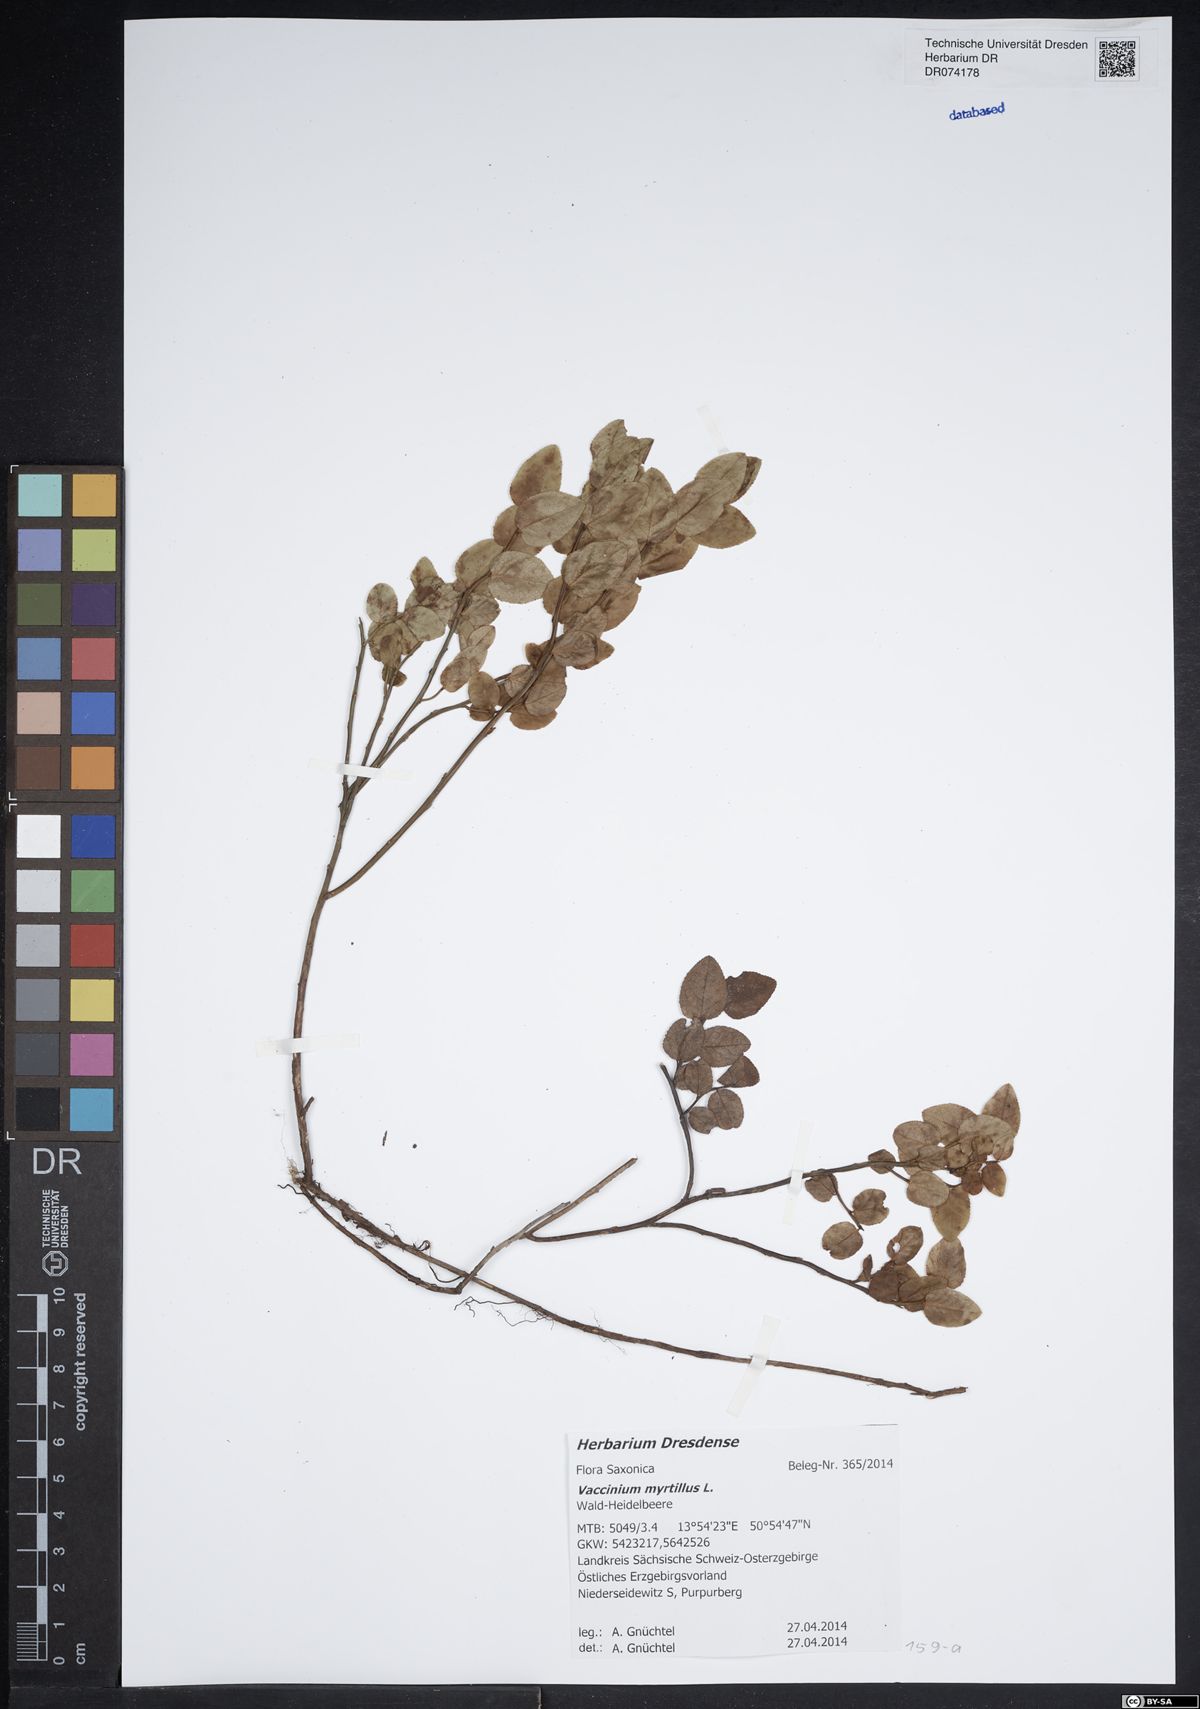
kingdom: Plantae
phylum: Tracheophyta
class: Magnoliopsida
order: Ericales
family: Ericaceae
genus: Vaccinium
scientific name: Vaccinium myrtillus
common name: Bilberry
